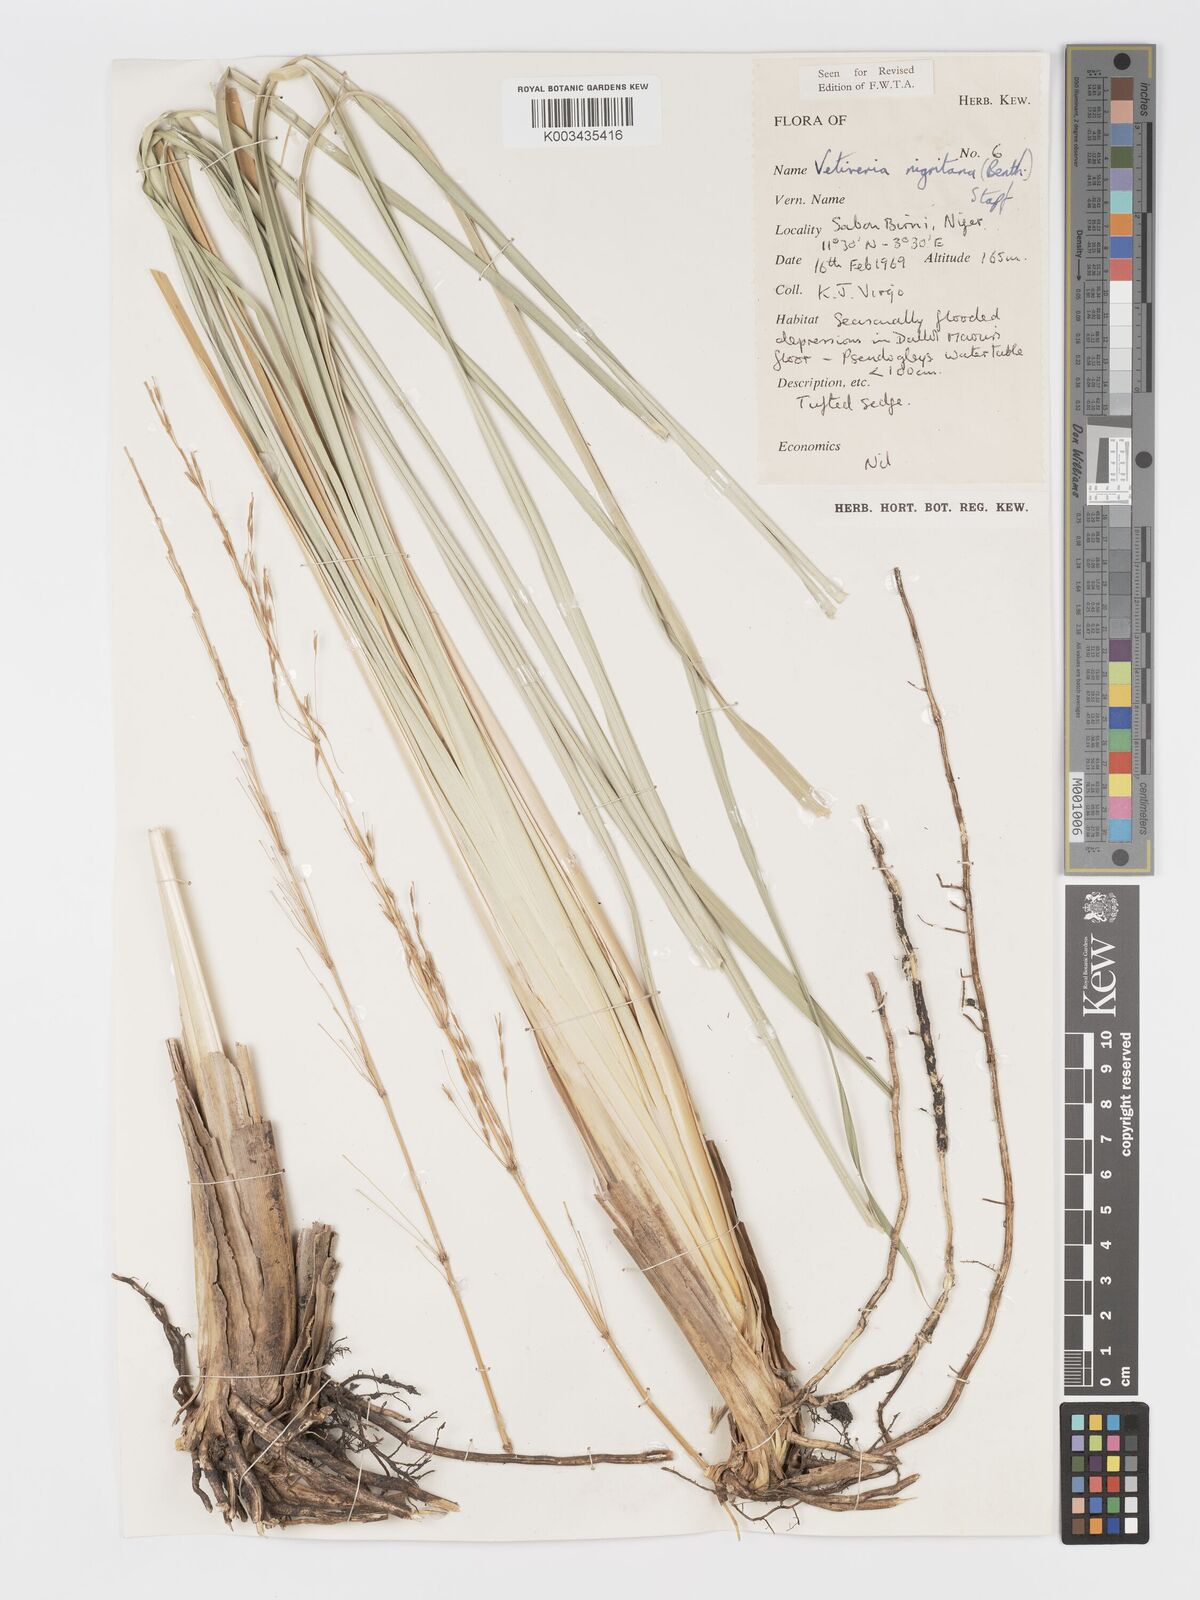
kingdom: Plantae
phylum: Tracheophyta
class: Liliopsida
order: Poales
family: Poaceae
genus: Chrysopogon
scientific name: Chrysopogon nigritanus
